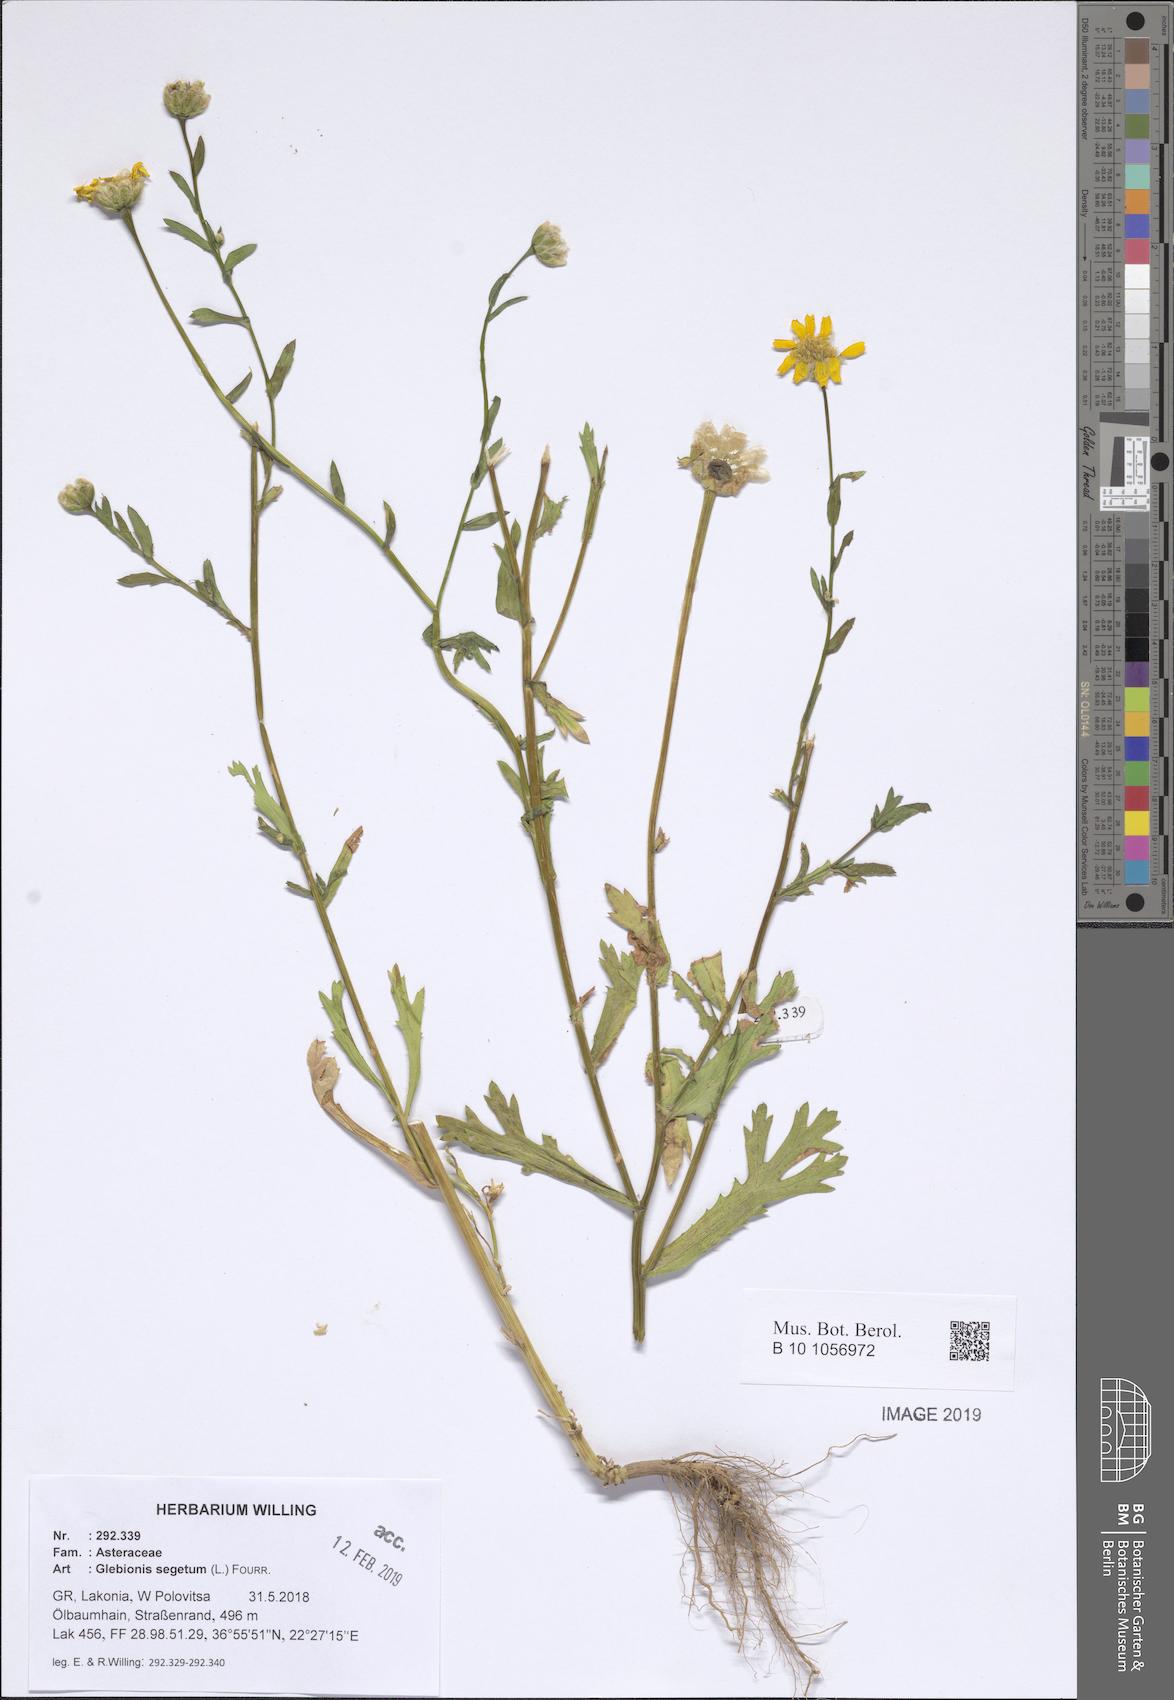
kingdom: Plantae
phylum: Tracheophyta
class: Magnoliopsida
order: Asterales
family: Asteraceae
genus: Glebionis
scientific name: Glebionis segetum
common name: Corndaisy
